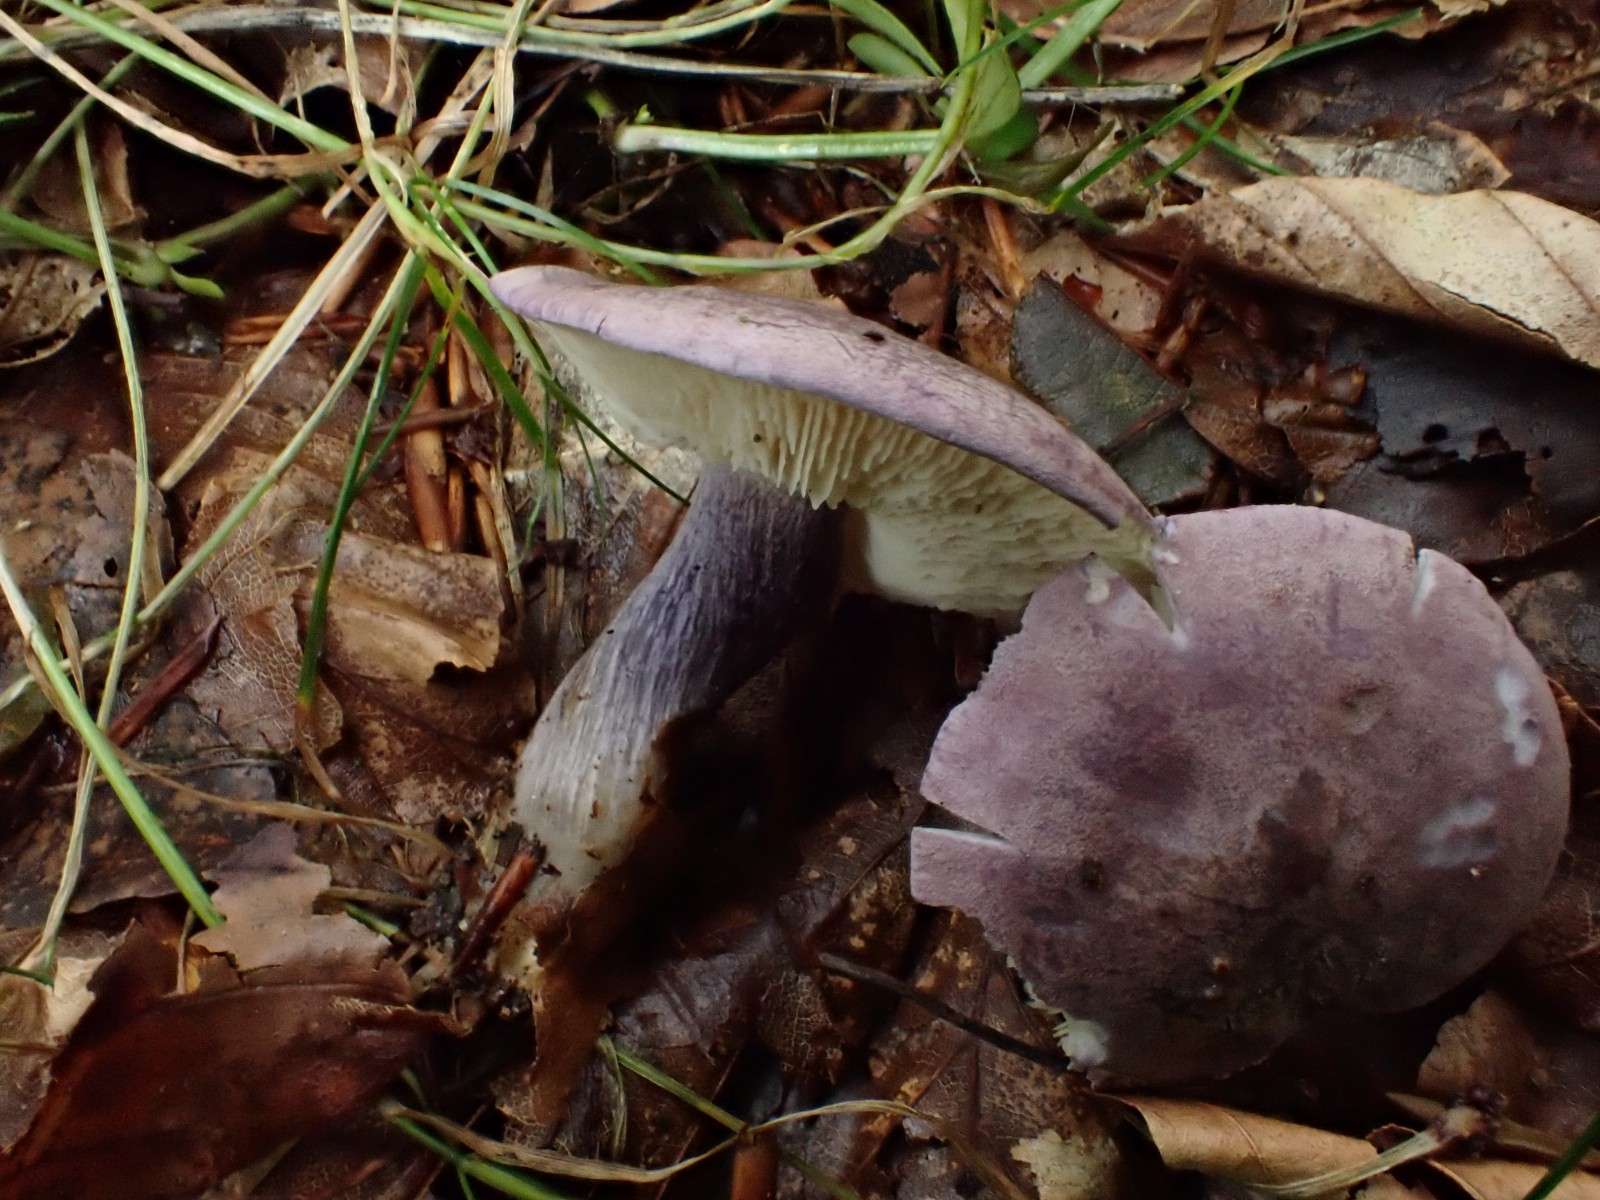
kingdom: Fungi
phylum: Basidiomycota
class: Agaricomycetes
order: Agaricales
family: Lyophyllaceae
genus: Calocybe
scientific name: Calocybe ionides
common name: violblå fagerhat
